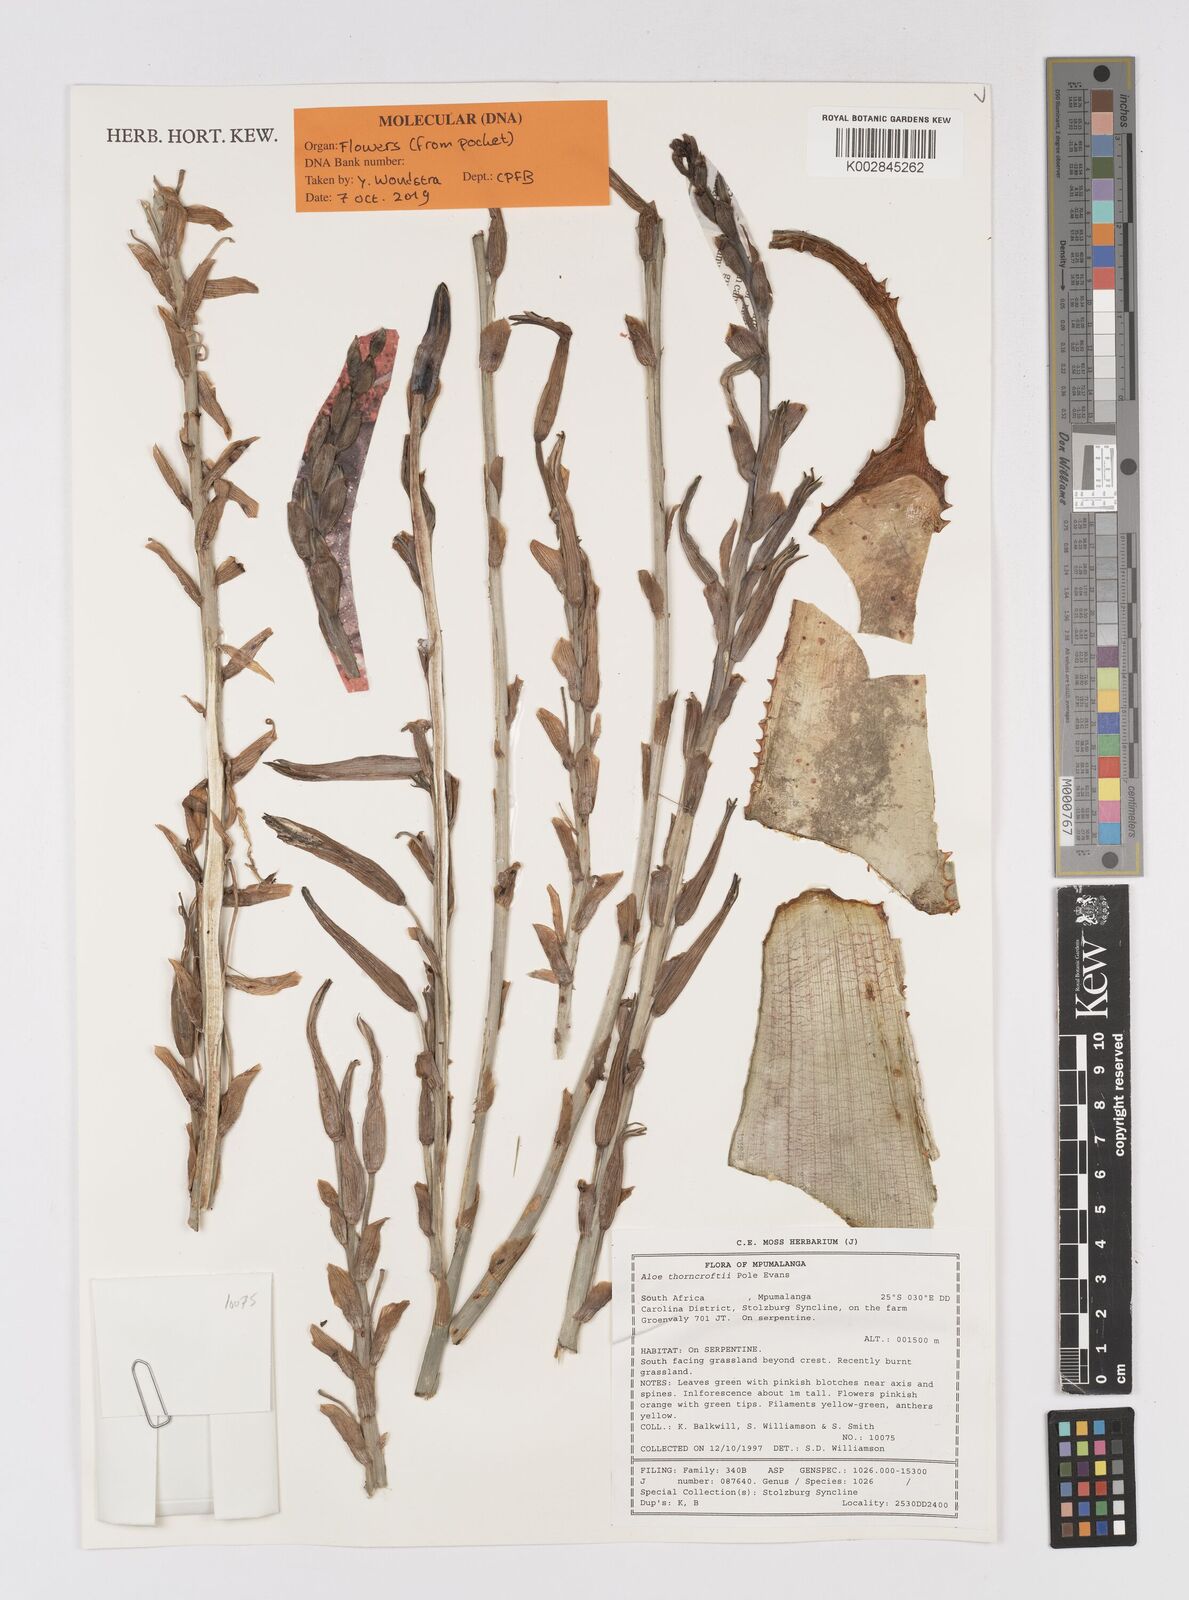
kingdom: Plantae
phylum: Tracheophyta
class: Liliopsida
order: Asparagales
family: Asphodelaceae
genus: Aloe
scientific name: Aloe thorncroftii
